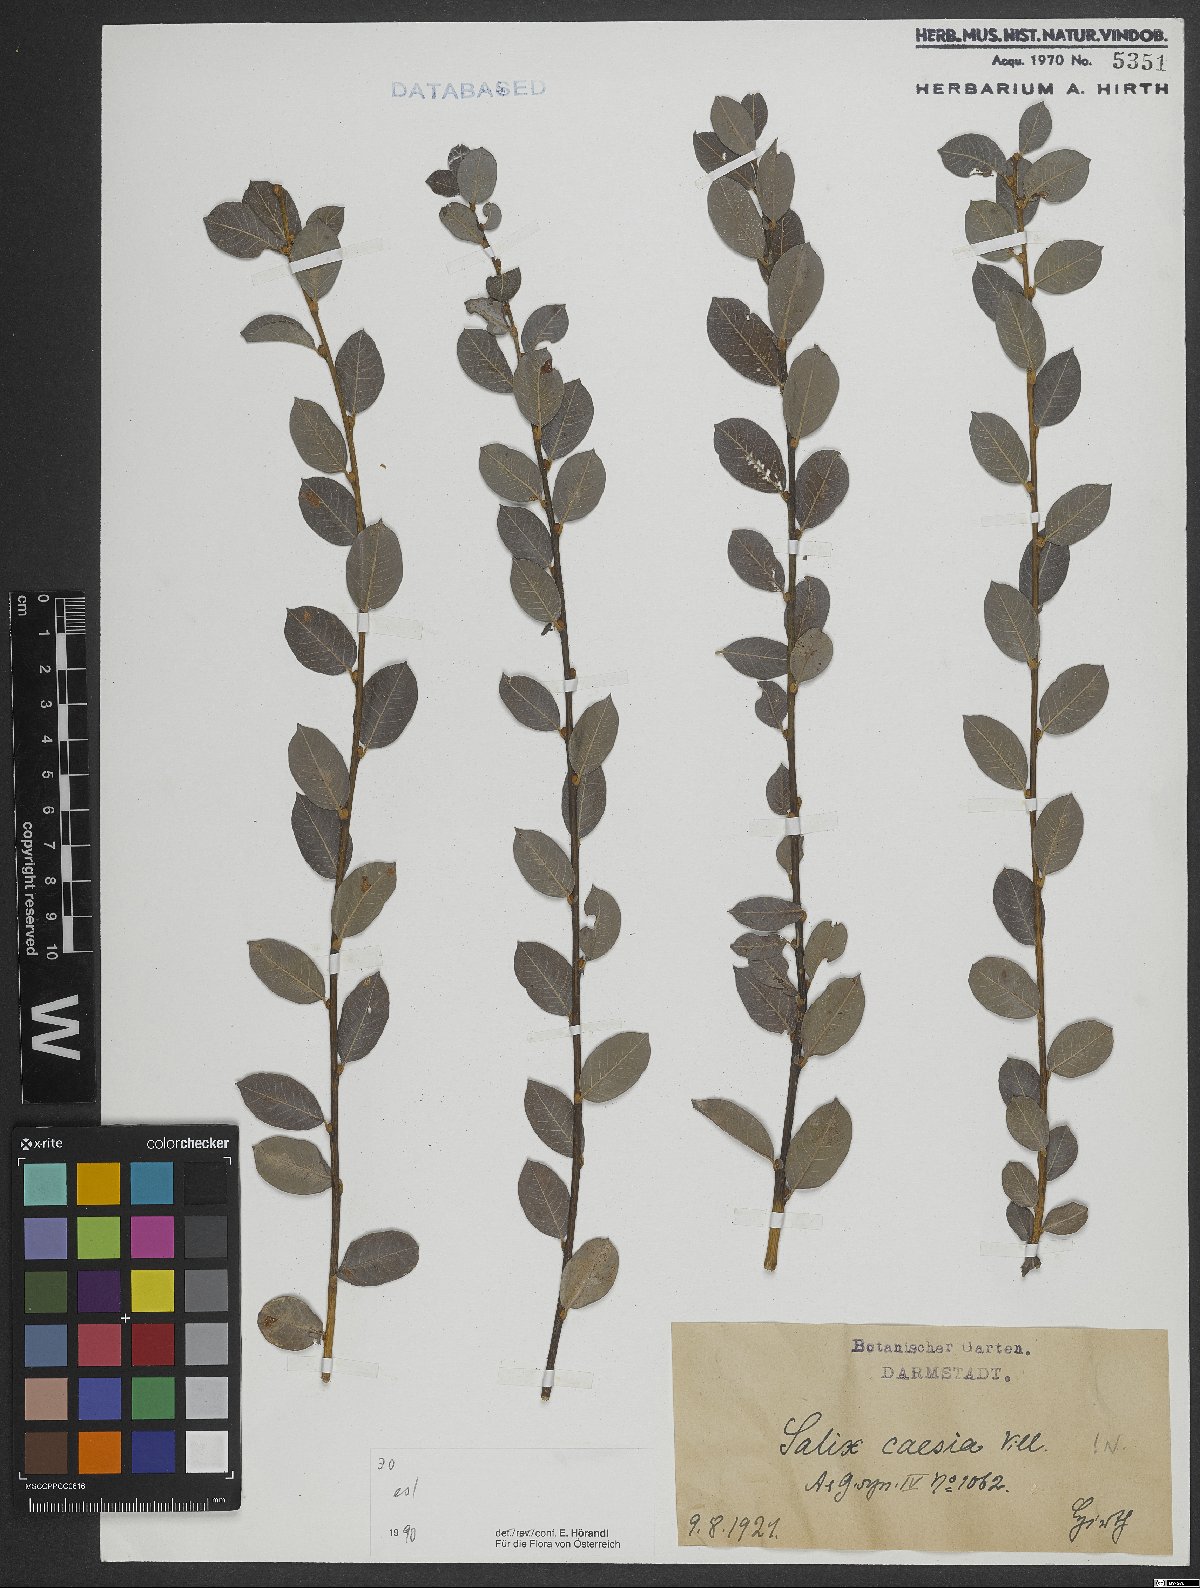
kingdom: Plantae
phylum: Tracheophyta
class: Magnoliopsida
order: Malpighiales
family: Salicaceae
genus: Salix
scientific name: Salix caesia
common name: Blue willow
